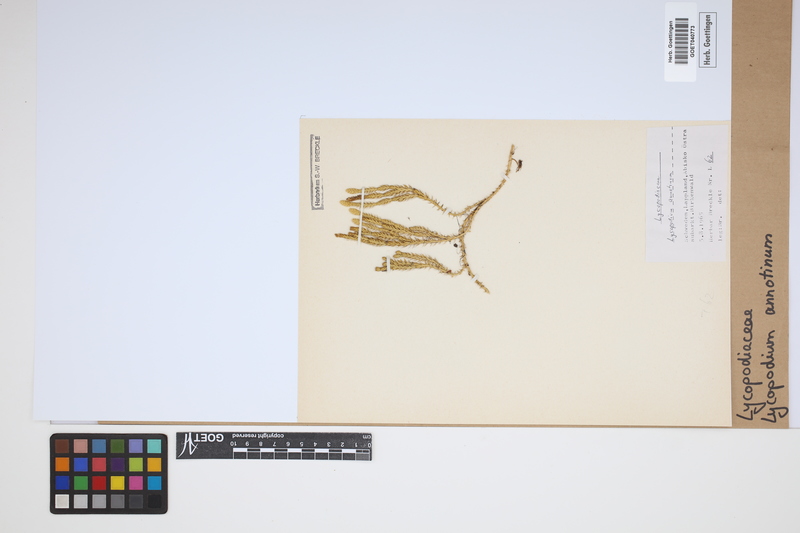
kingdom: Plantae
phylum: Tracheophyta
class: Lycopodiopsida
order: Lycopodiales
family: Lycopodiaceae
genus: Spinulum
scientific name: Spinulum annotinum
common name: Interrupted club-moss
